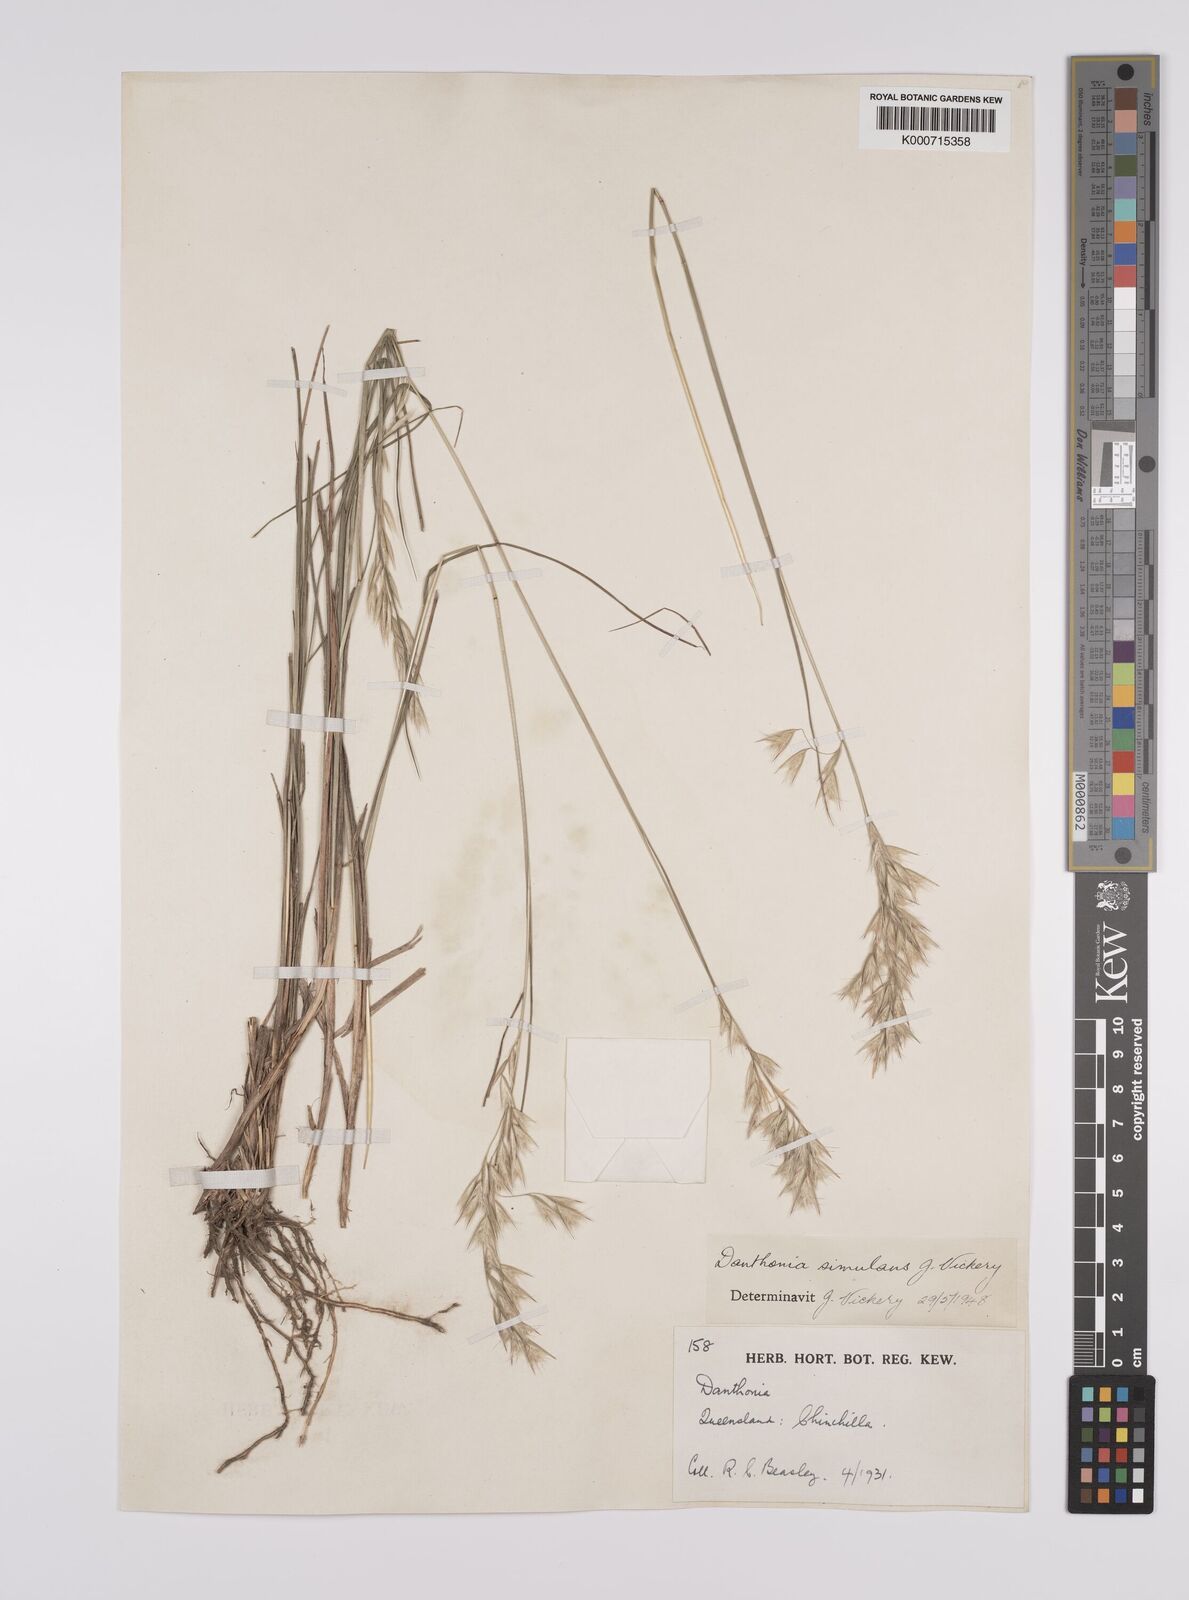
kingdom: Plantae
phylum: Tracheophyta
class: Liliopsida
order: Poales
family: Poaceae
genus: Rytidosperma
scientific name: Rytidosperma bipartitum
